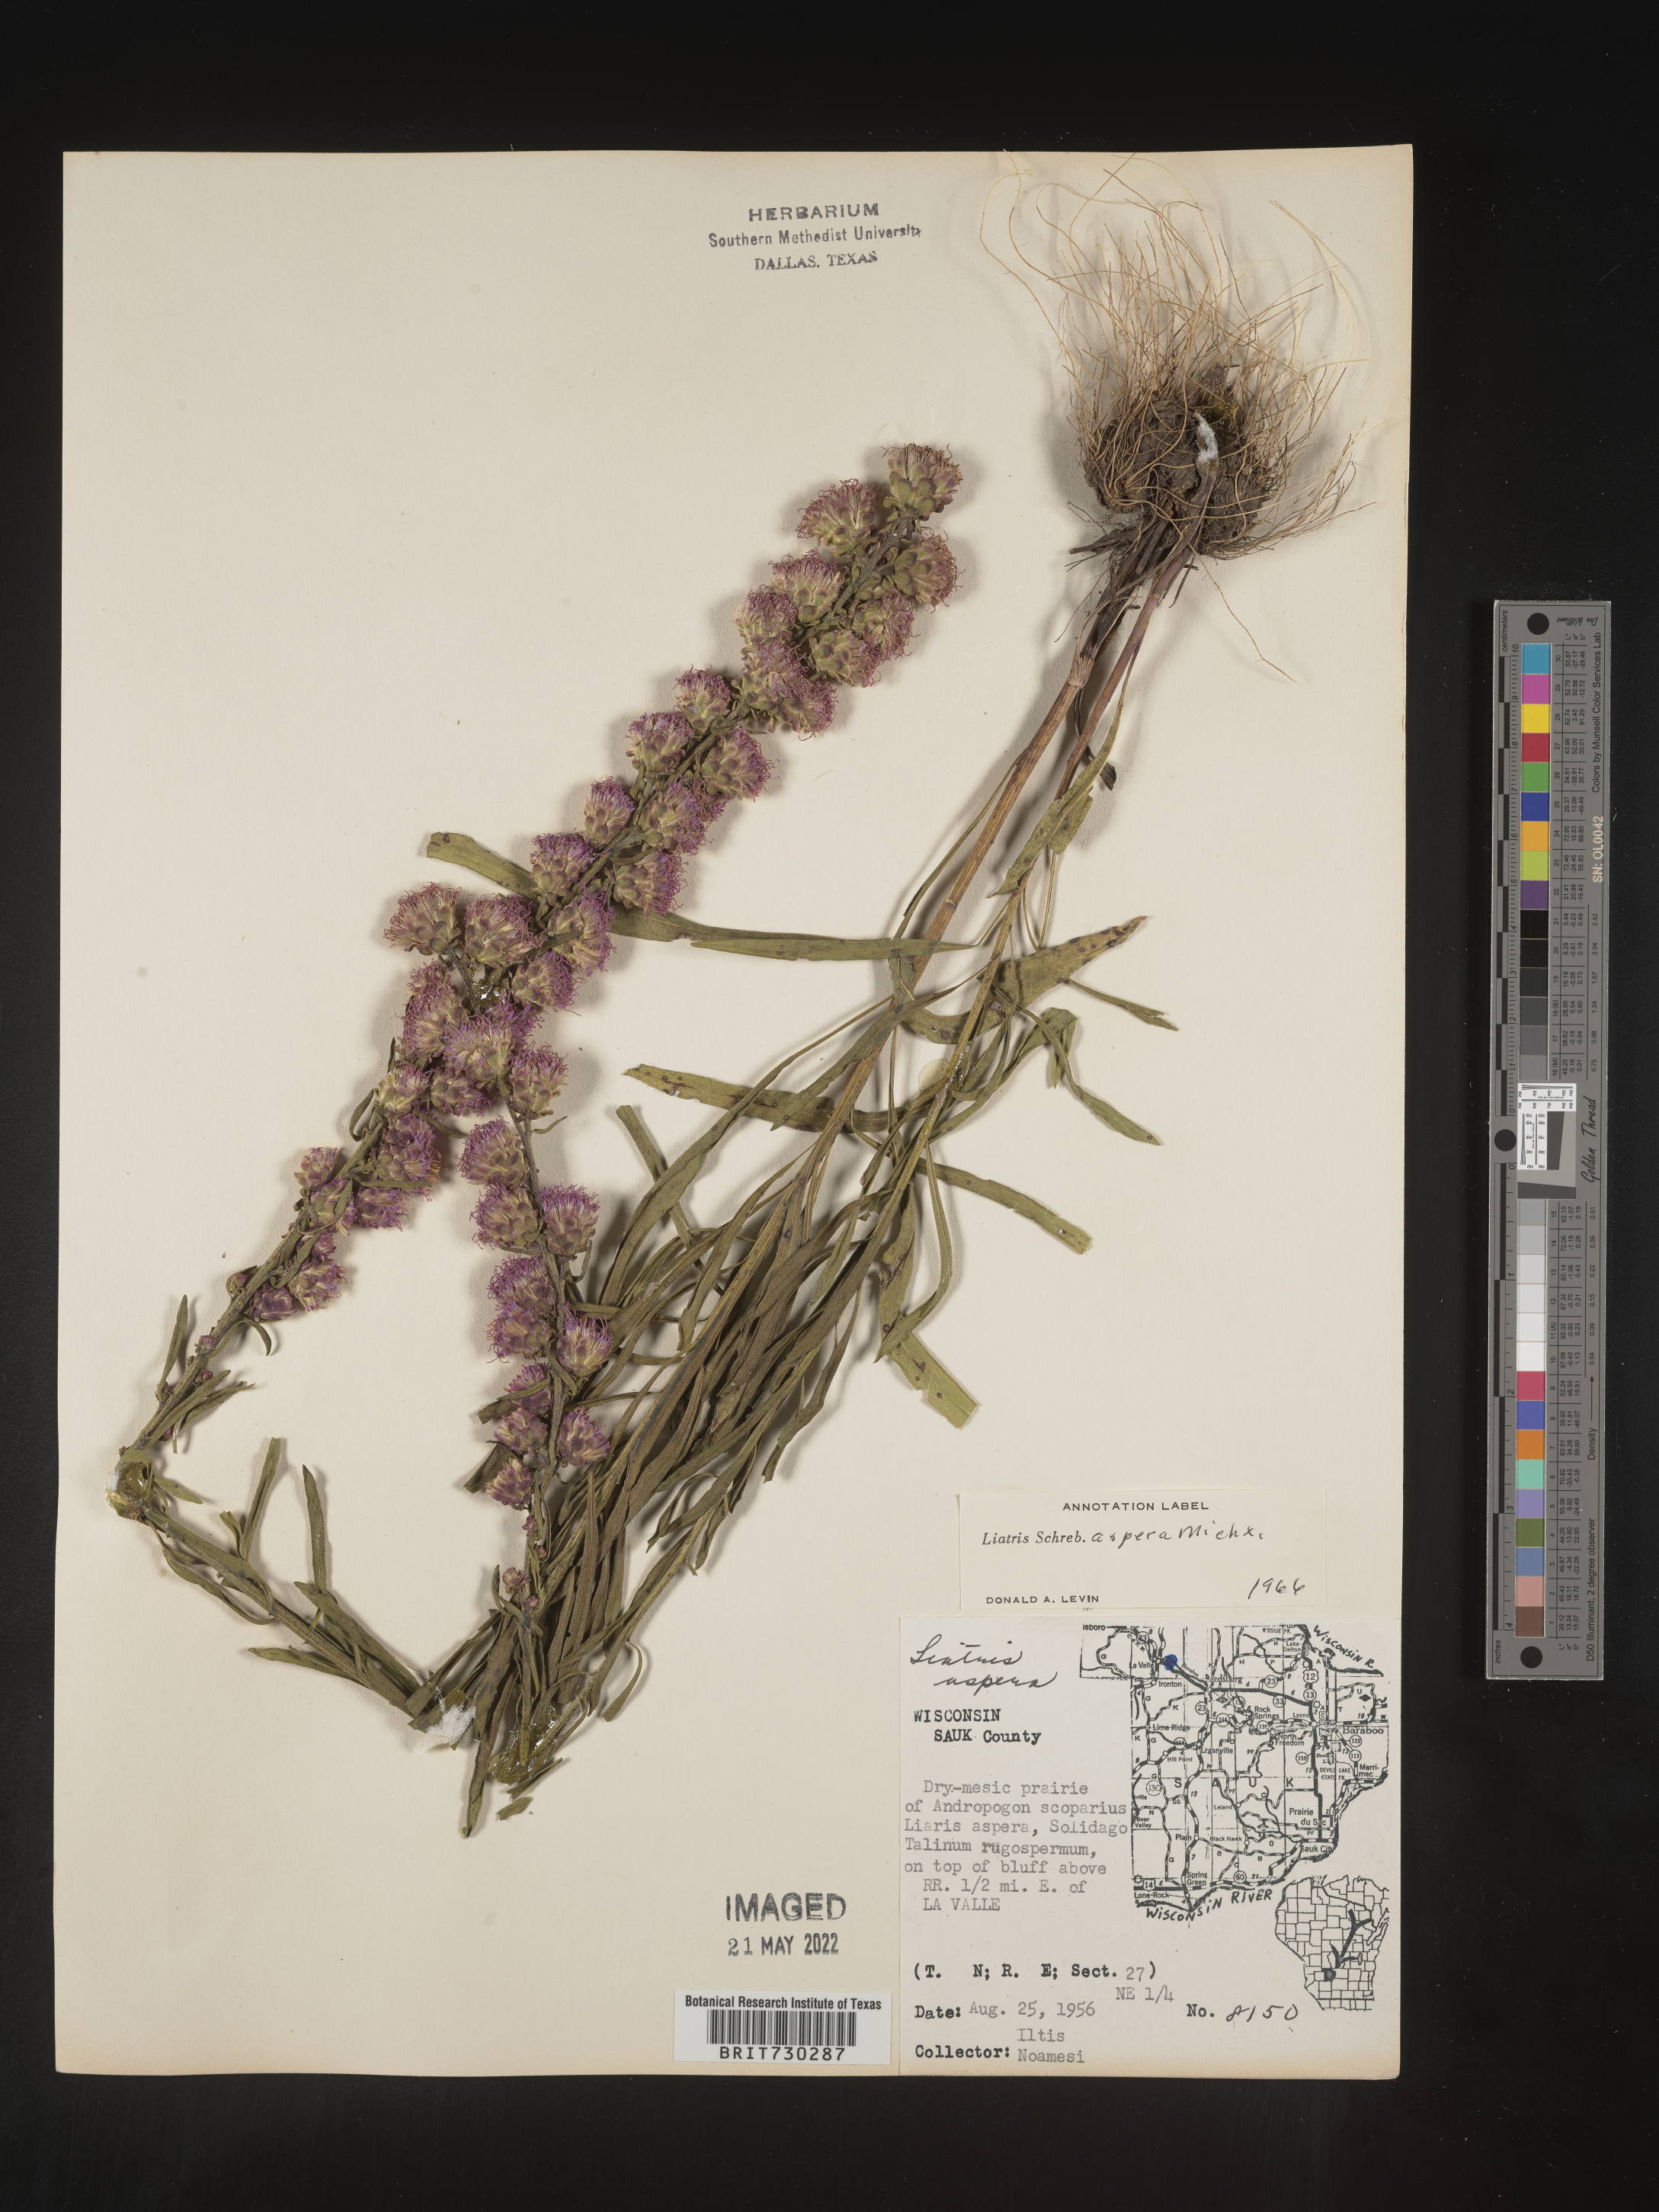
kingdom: Plantae
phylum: Tracheophyta
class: Magnoliopsida
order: Asterales
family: Asteraceae
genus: Liatris
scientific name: Liatris aspera
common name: Lacerate blazing-star
